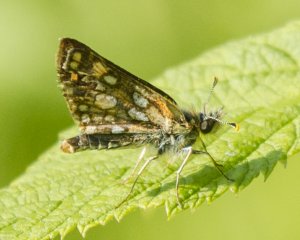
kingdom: Animalia
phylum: Arthropoda
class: Insecta
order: Lepidoptera
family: Hesperiidae
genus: Carterocephalus
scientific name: Carterocephalus palaemon
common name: Chequered Skipper
